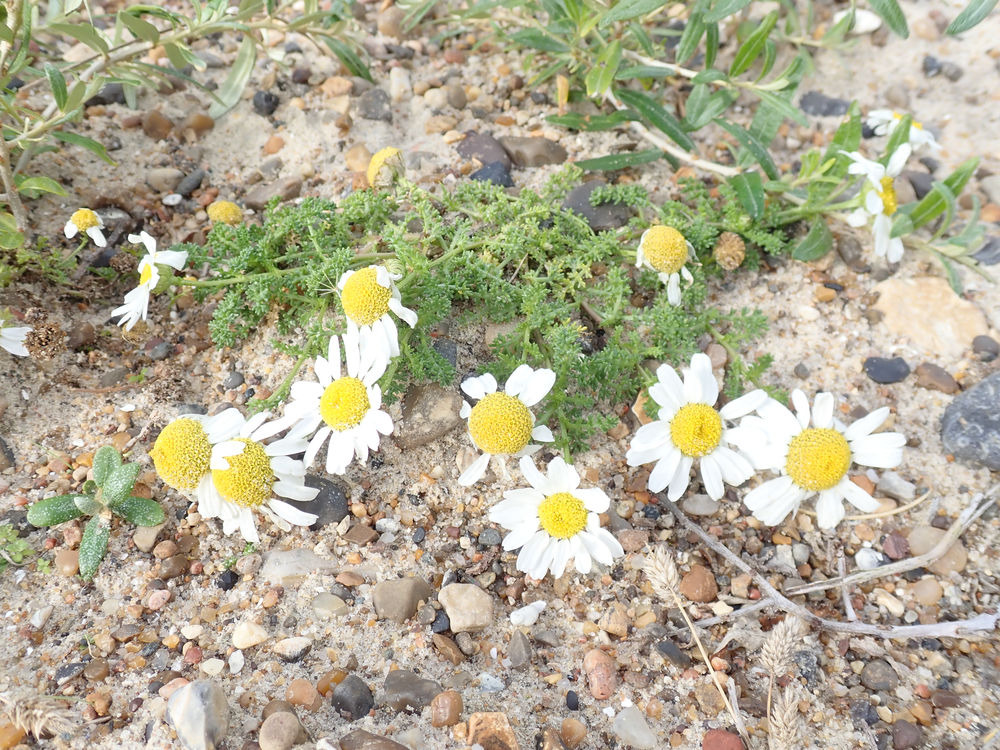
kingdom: Plantae
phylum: Tracheophyta
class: Magnoliopsida
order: Asterales
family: Asteraceae
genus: Tripleurospermum
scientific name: Tripleurospermum maritimum
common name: Strand-kamille
